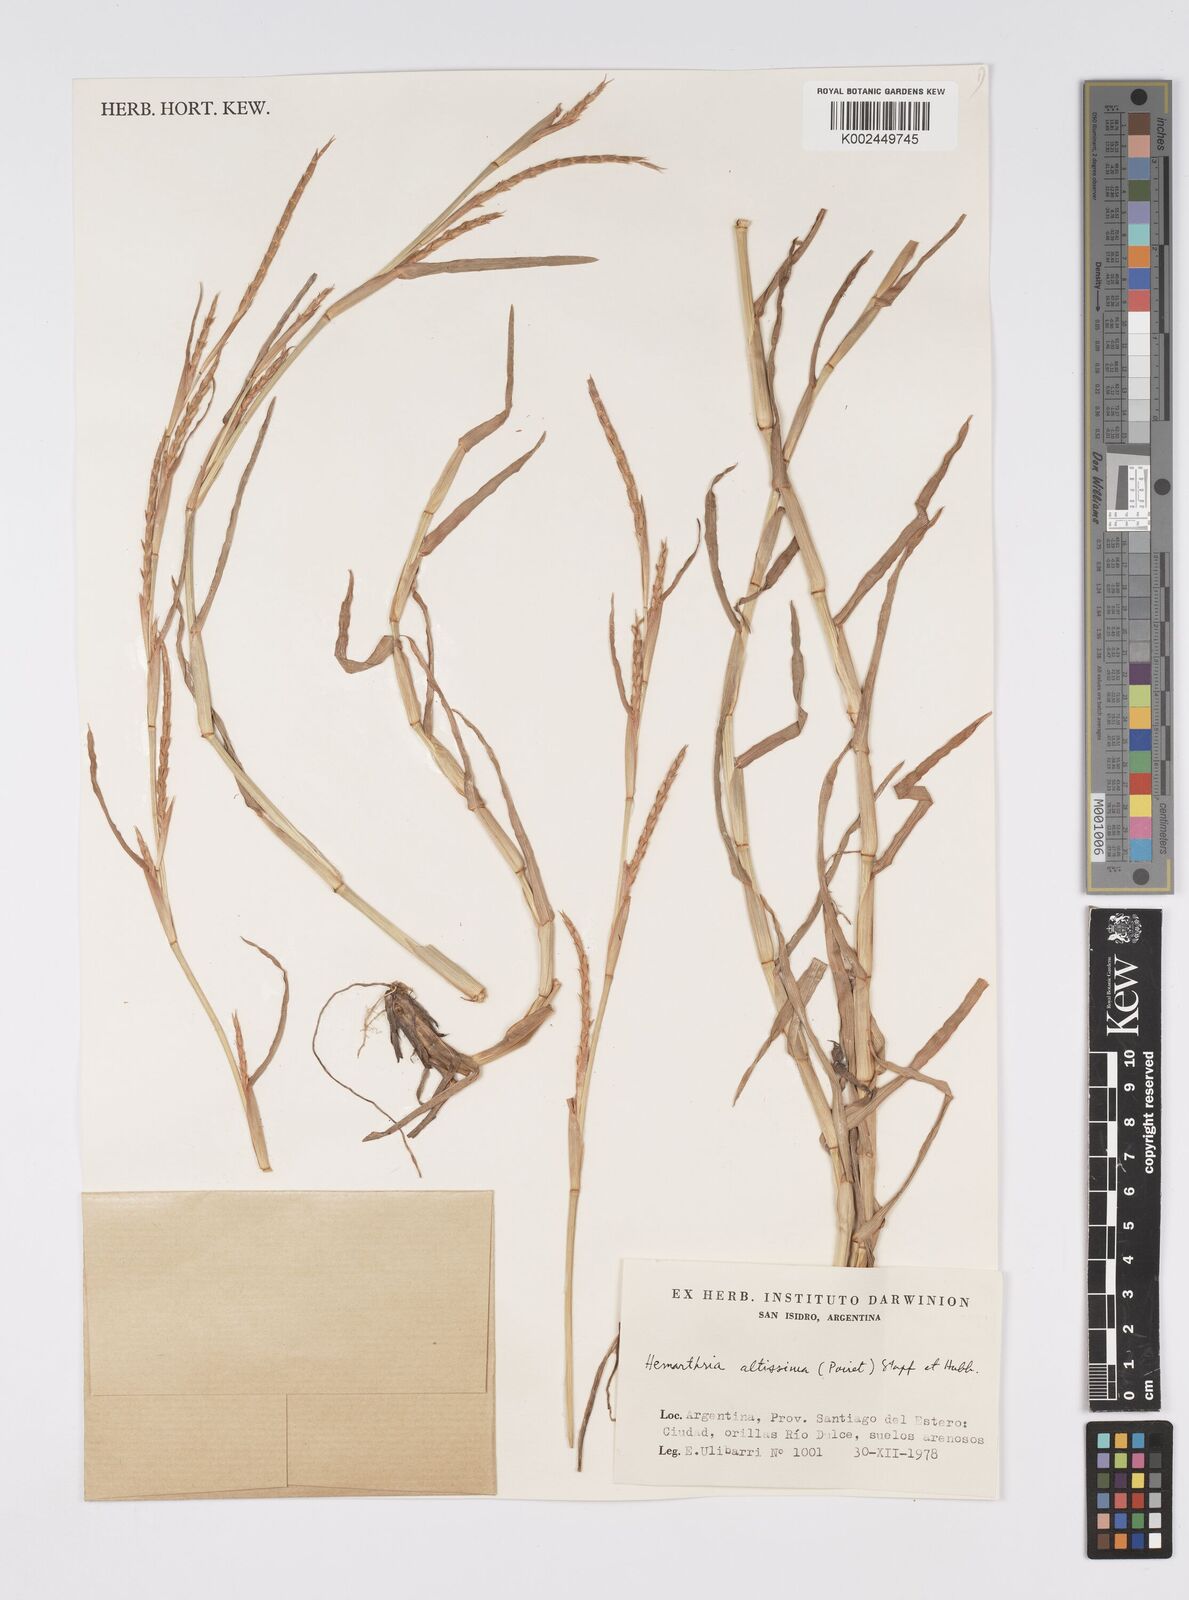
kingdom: Plantae
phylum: Tracheophyta
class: Liliopsida
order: Poales
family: Poaceae
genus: Hemarthria
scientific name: Hemarthria altissima
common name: African jointgrass
